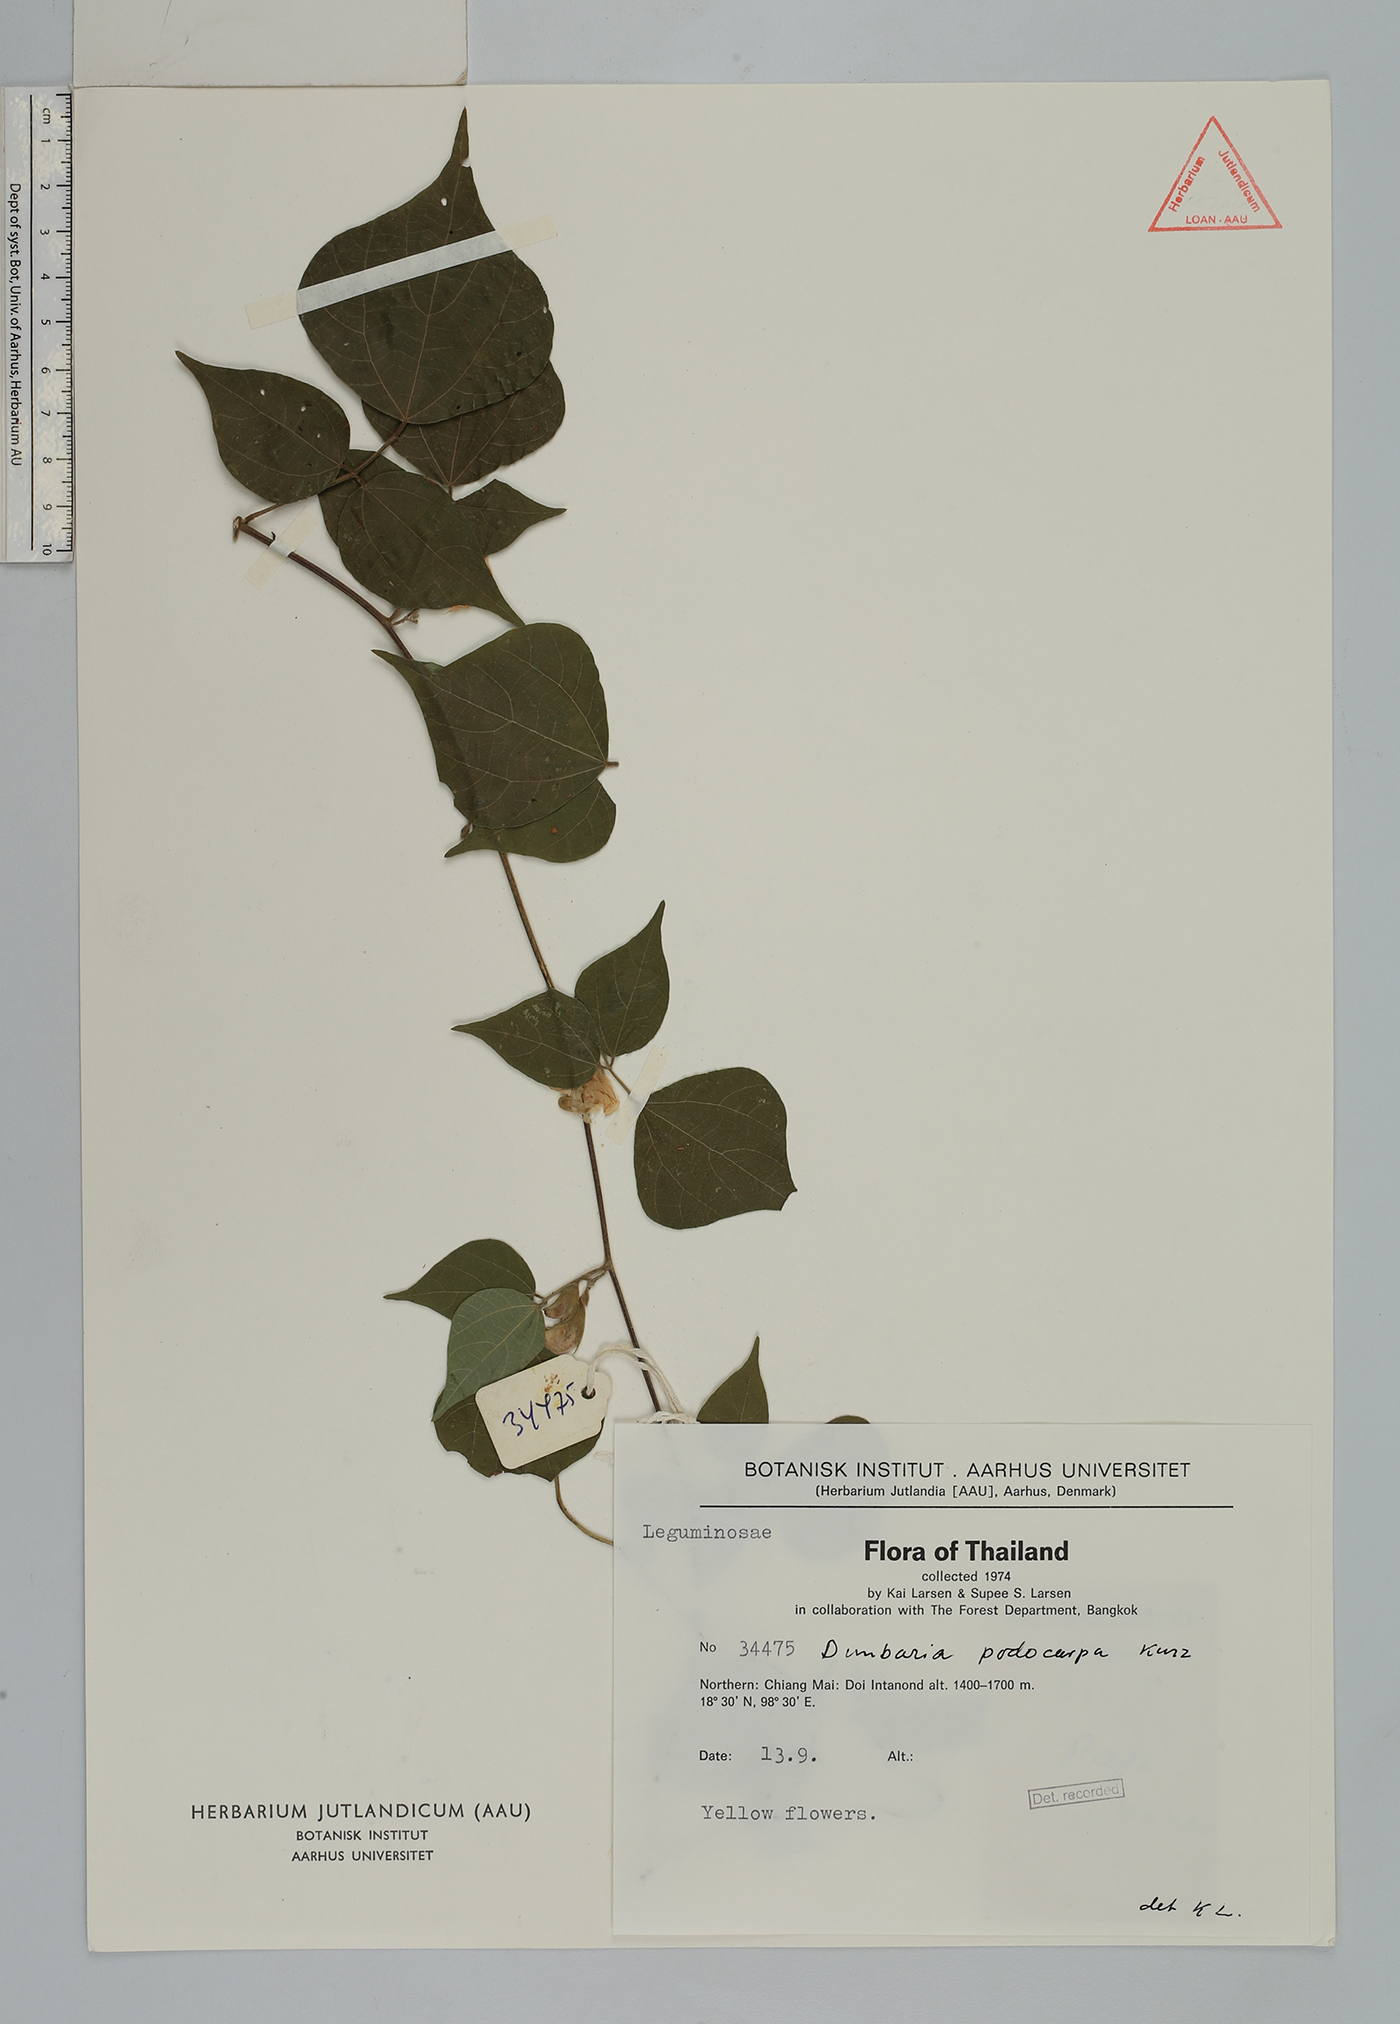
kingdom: Plantae
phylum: Tracheophyta
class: Magnoliopsida
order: Fabales
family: Fabaceae
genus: Dunbaria
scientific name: Dunbaria podocarpa
